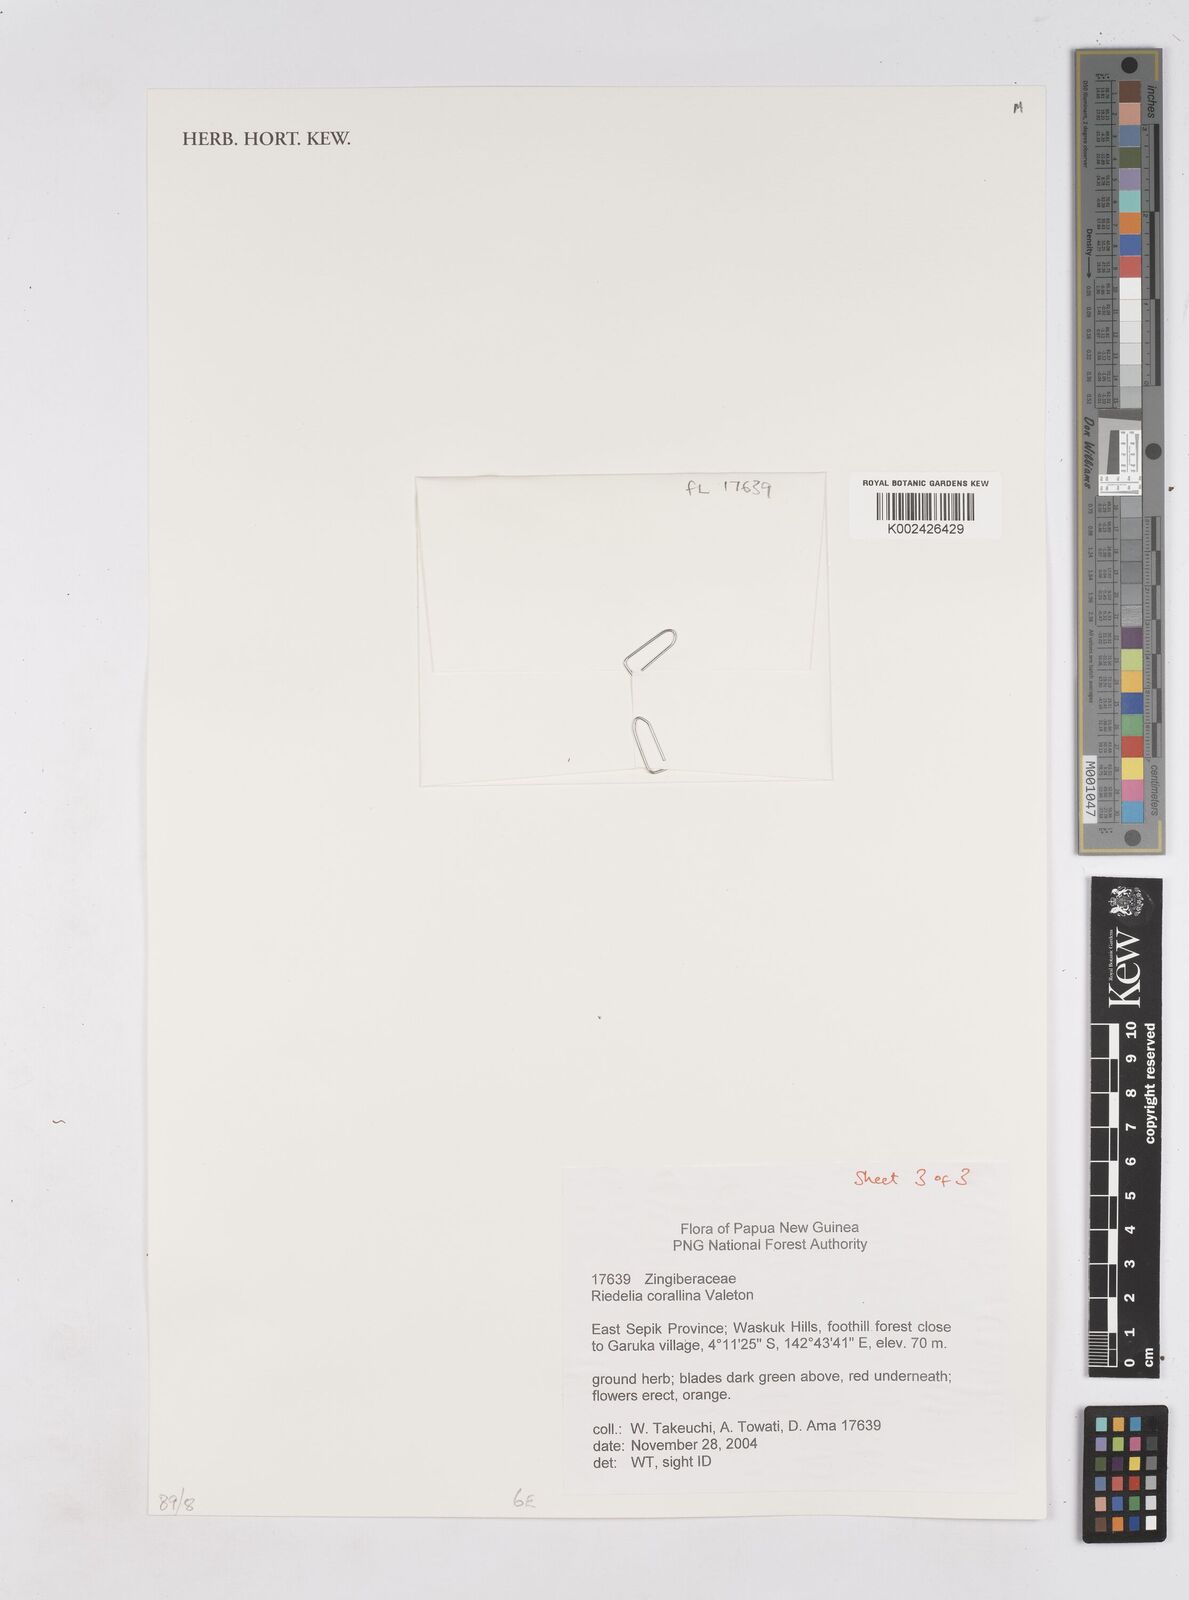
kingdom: Plantae
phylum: Tracheophyta
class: Liliopsida
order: Zingiberales
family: Zingiberaceae
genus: Riedelia
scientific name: Riedelia corallina
